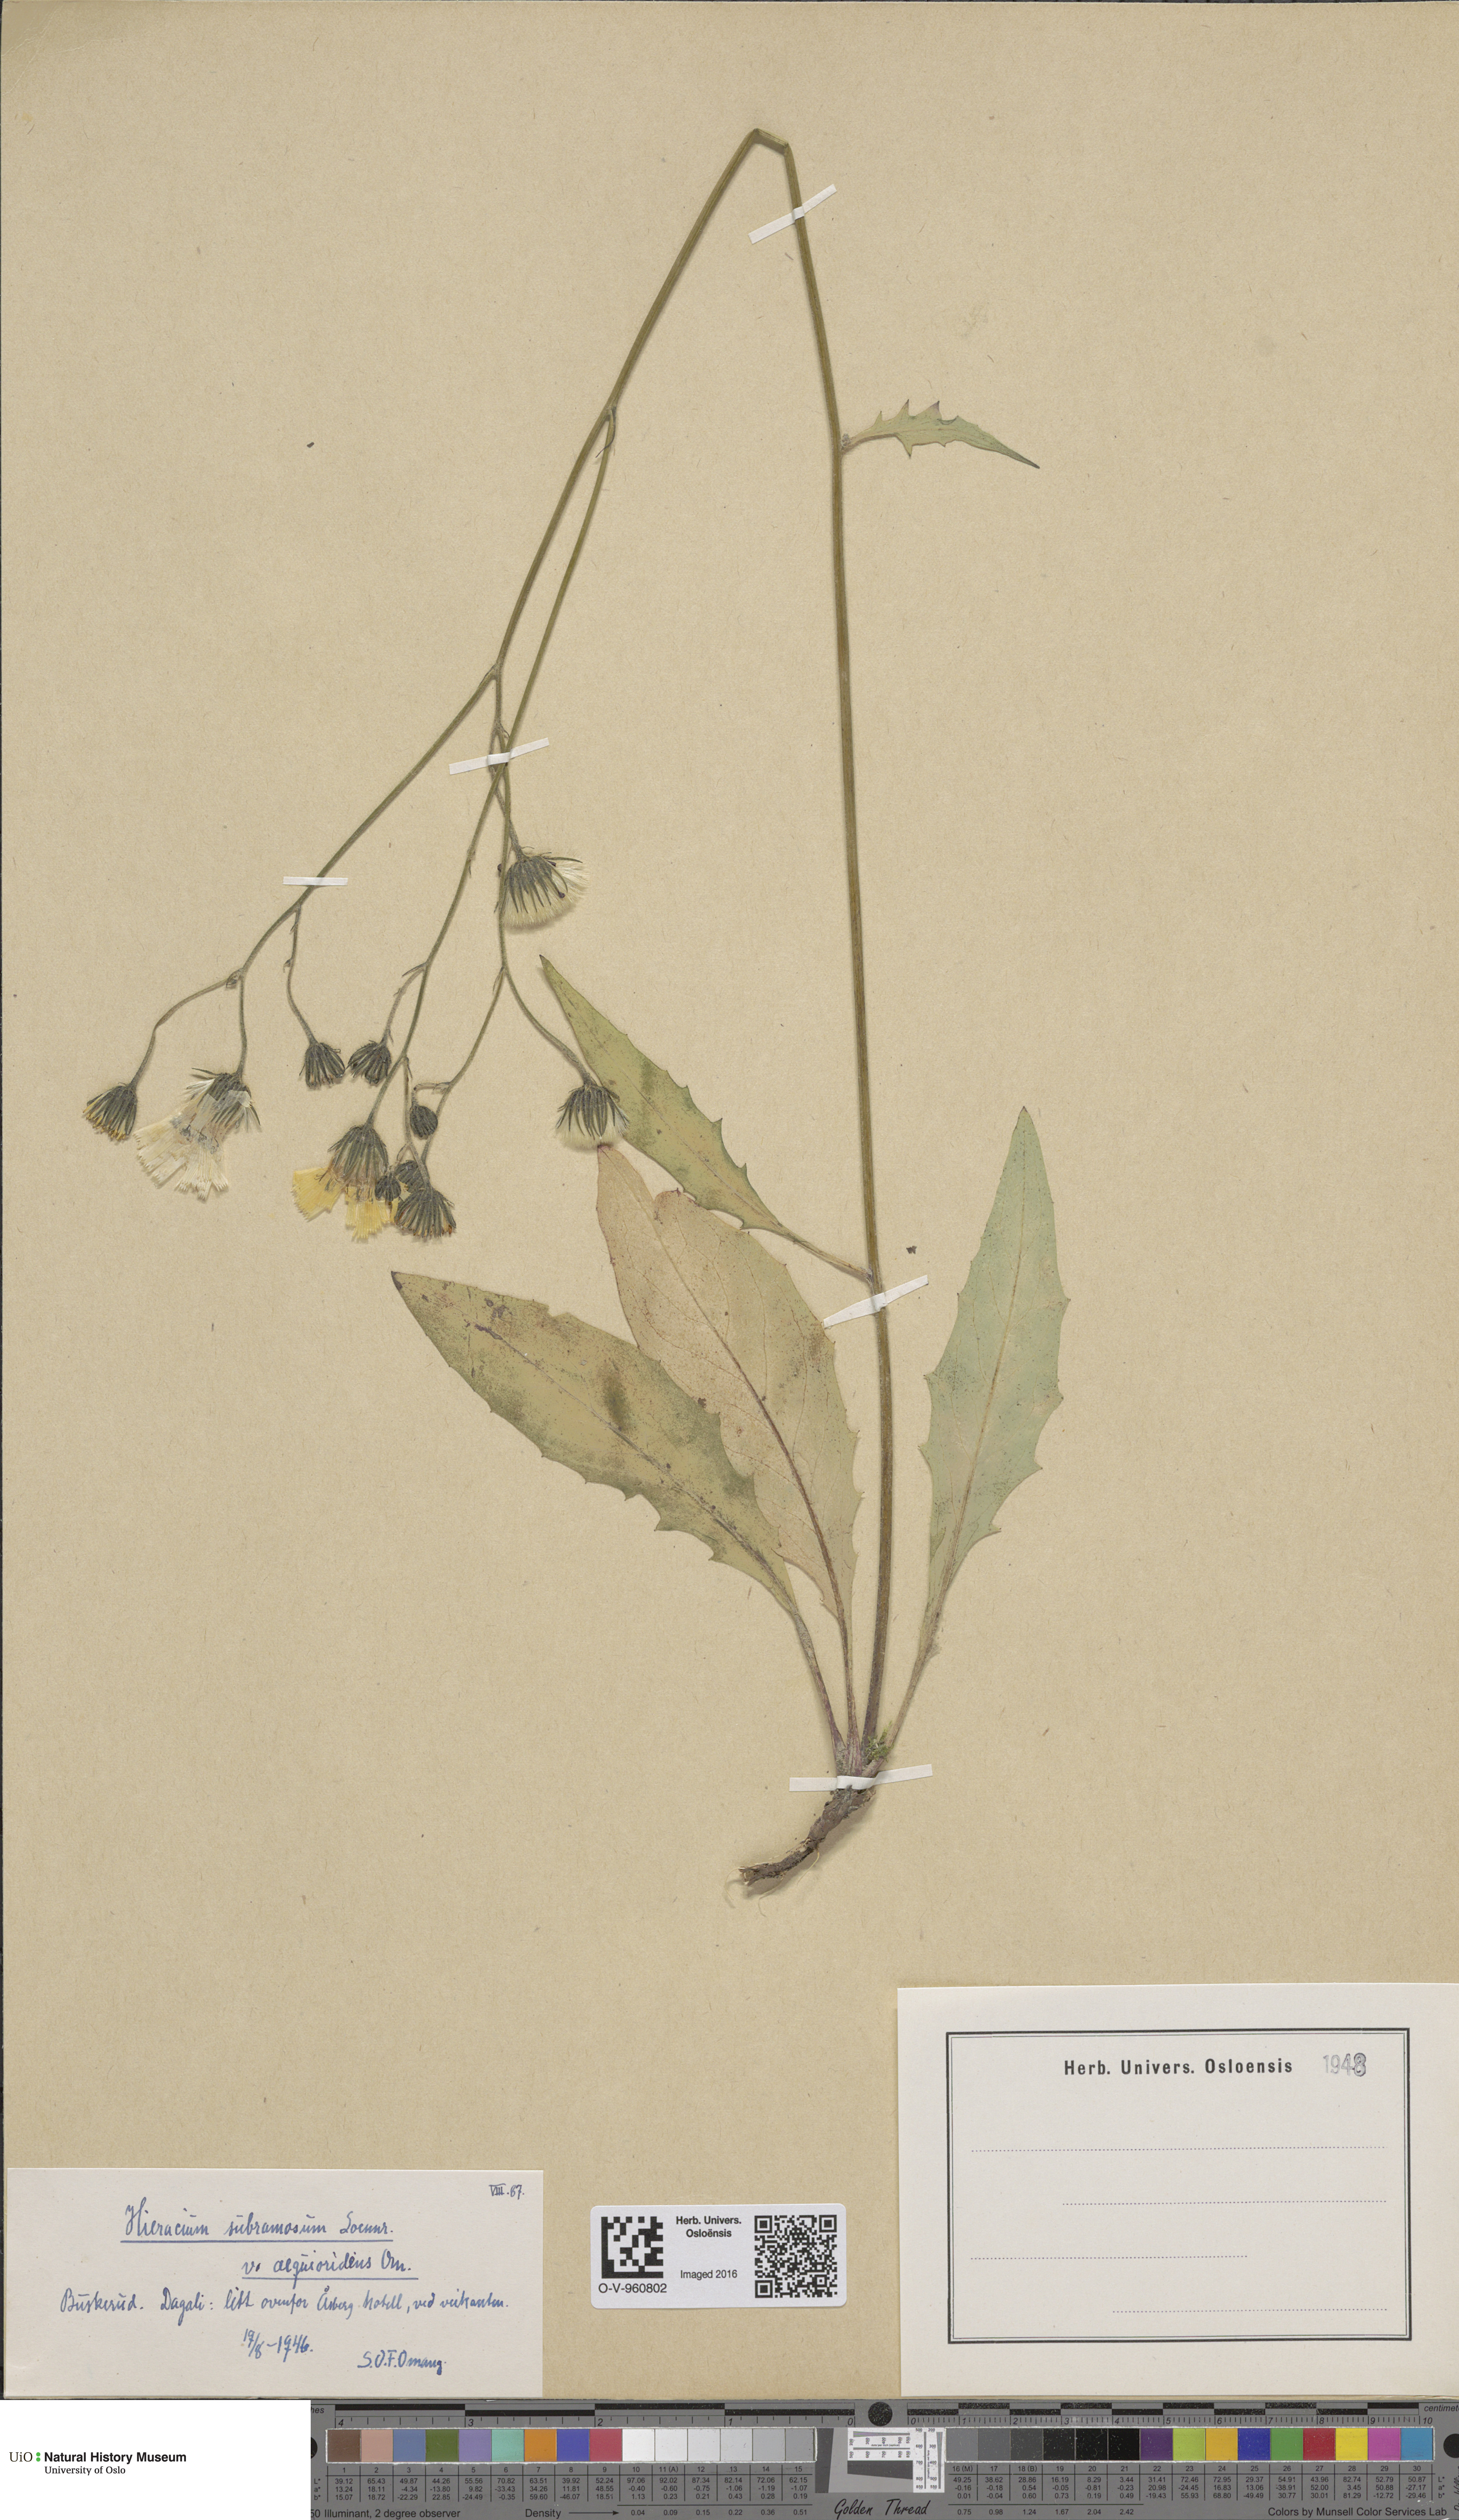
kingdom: Plantae
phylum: Tracheophyta
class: Magnoliopsida
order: Asterales
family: Asteraceae
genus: Hieracium
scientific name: Hieracium subramosum
